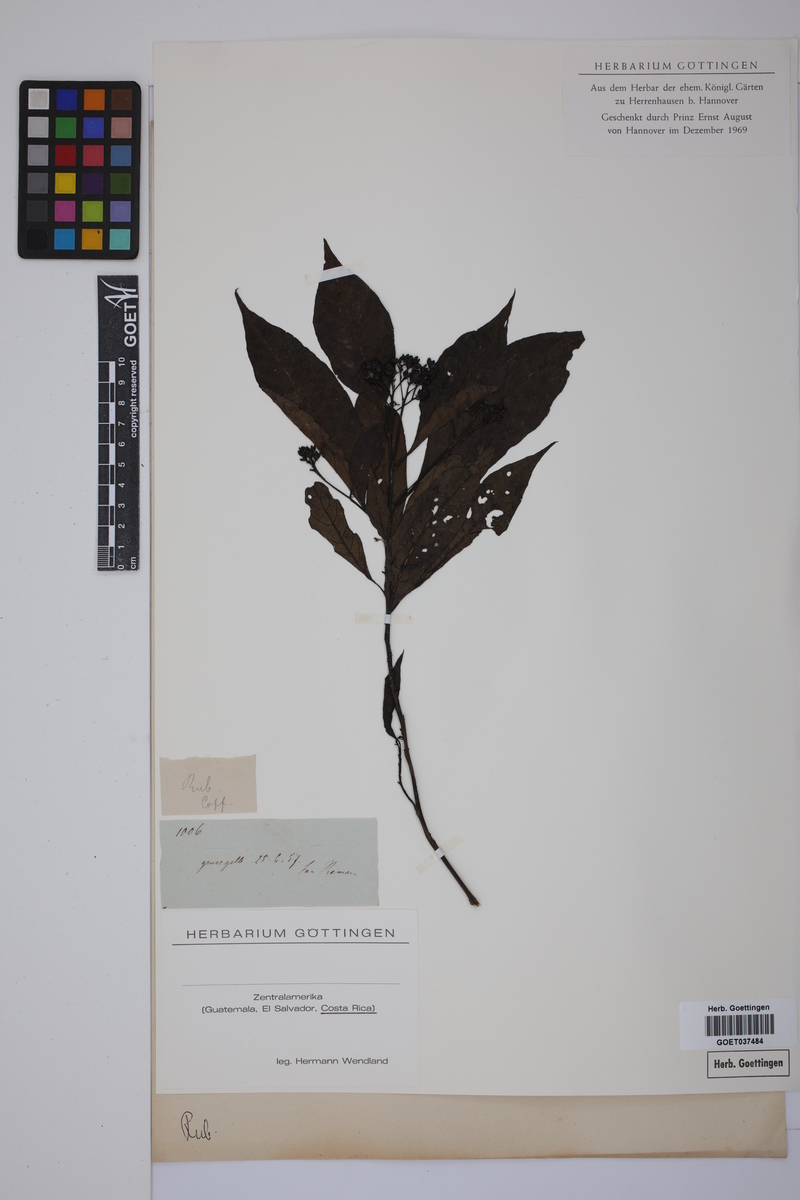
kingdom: Plantae
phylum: Tracheophyta
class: Magnoliopsida
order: Gentianales
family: Rubiaceae
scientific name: Rubiaceae
